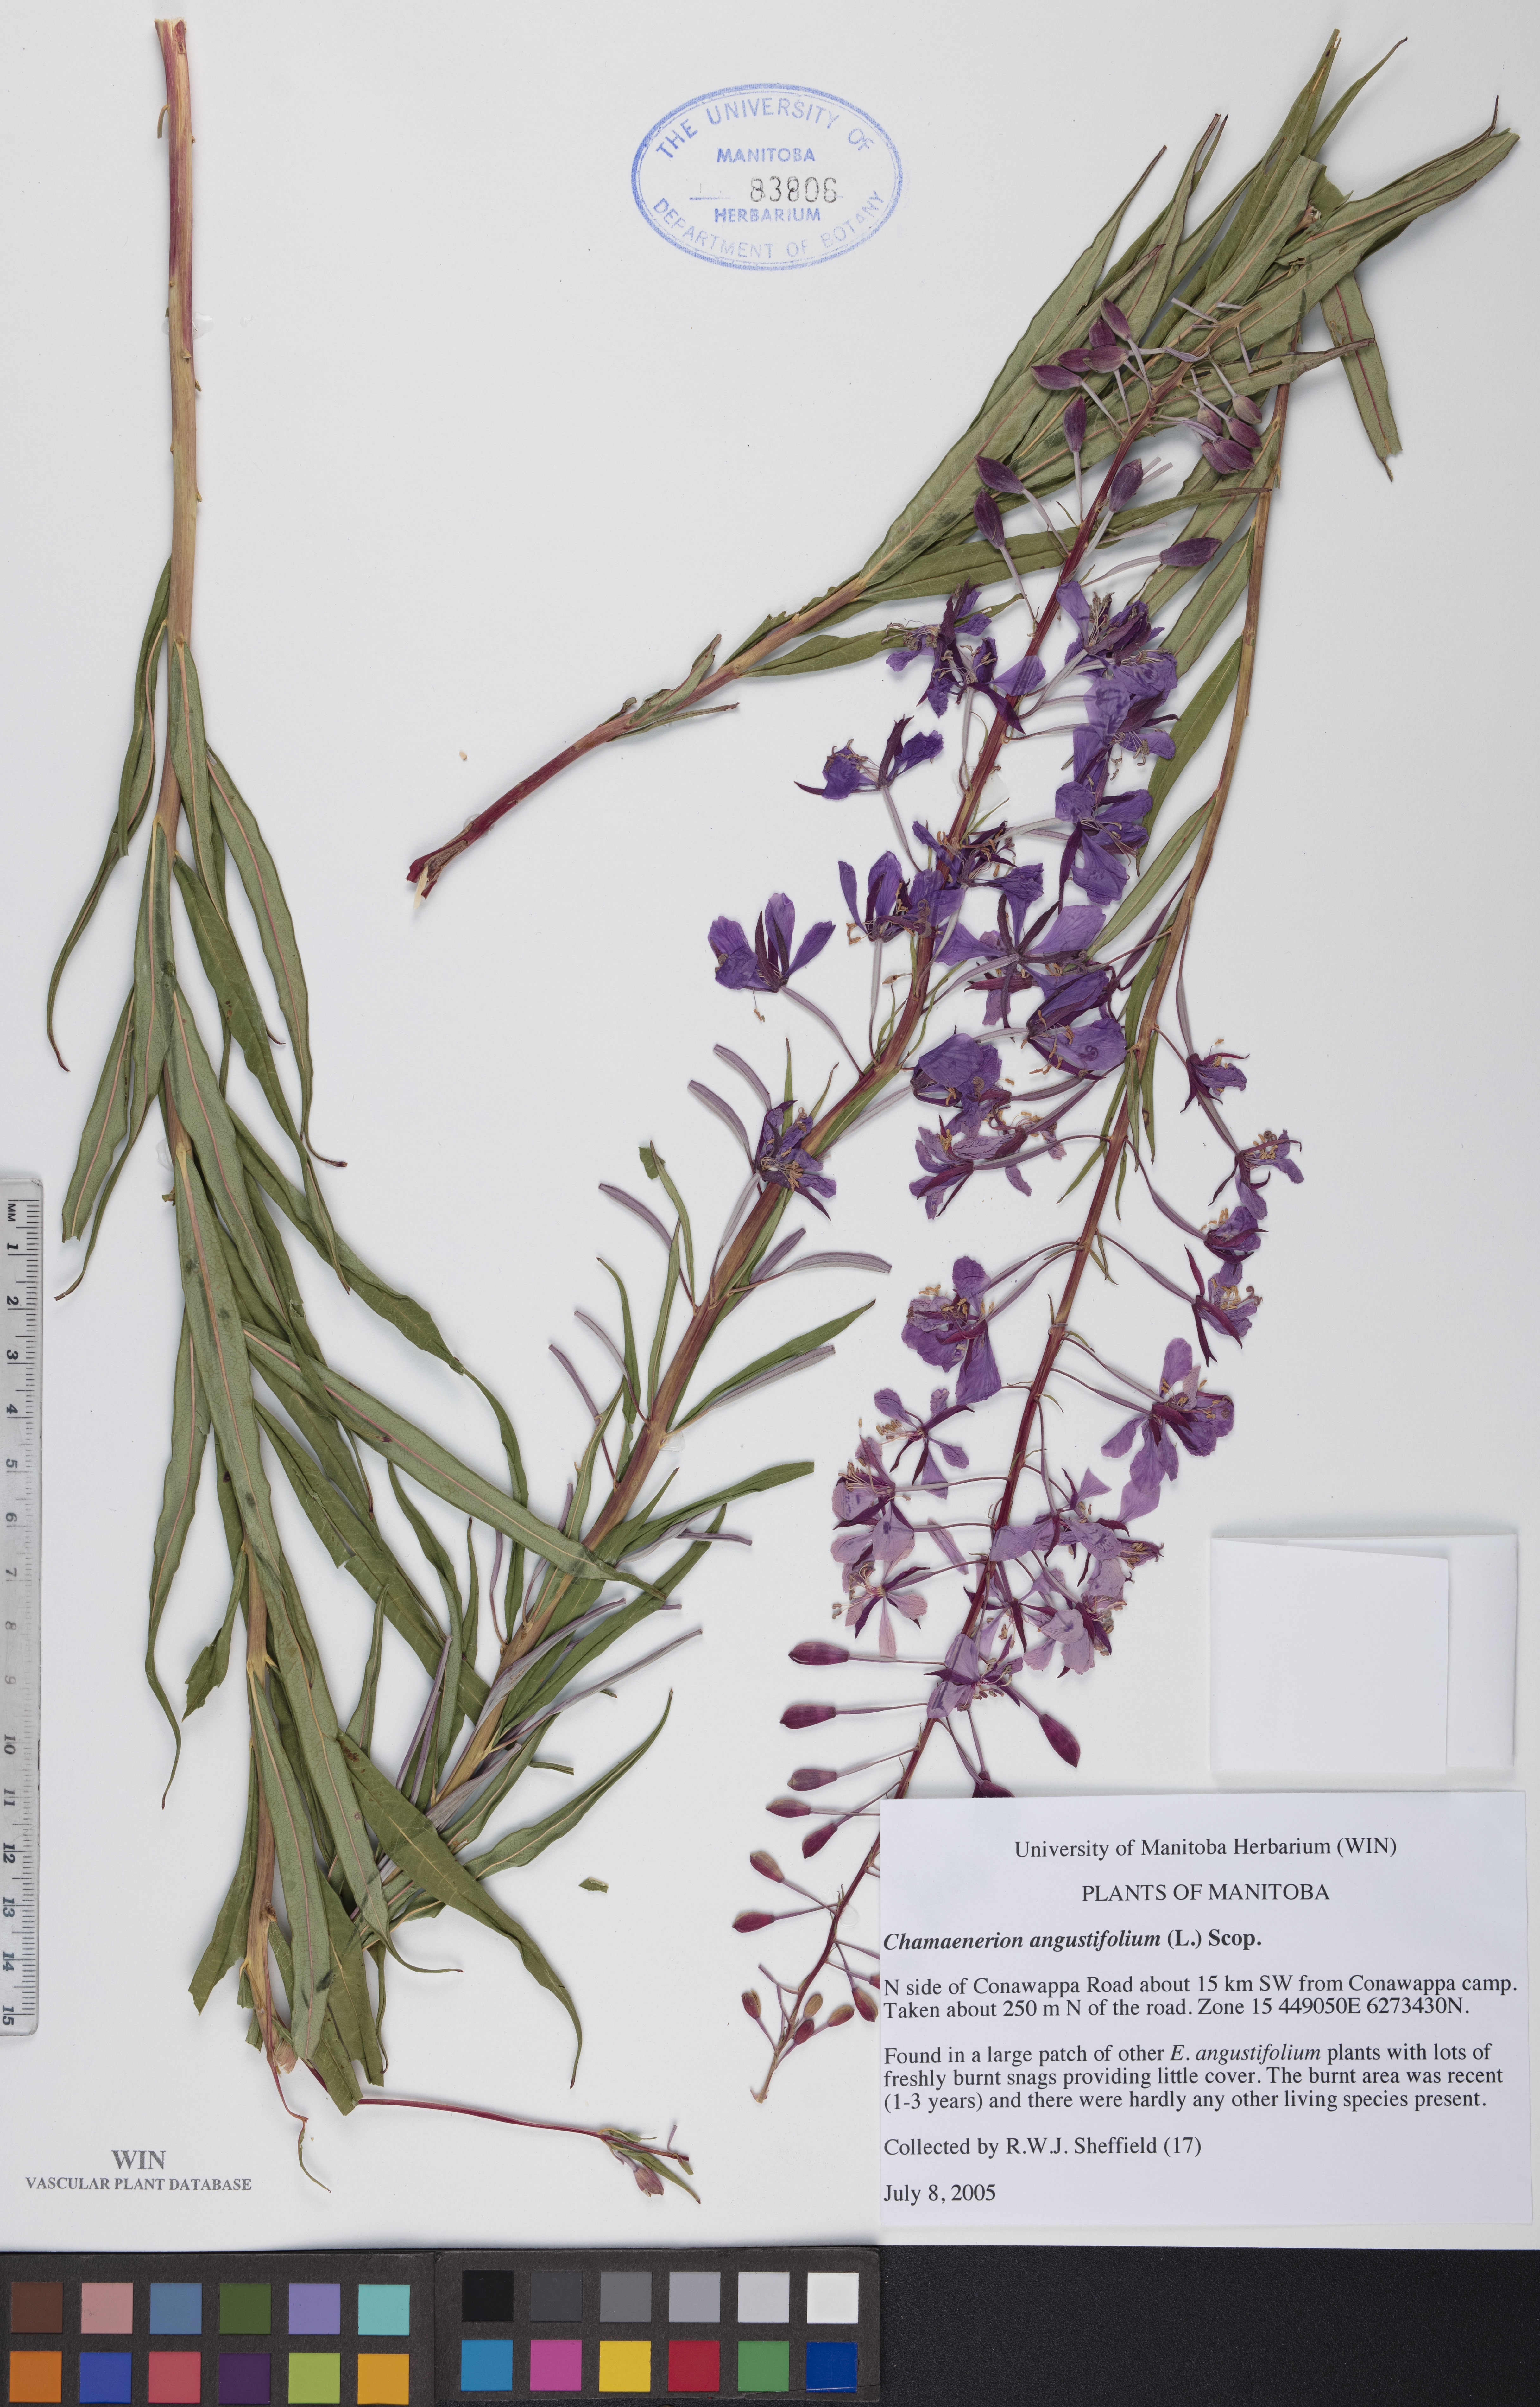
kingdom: Plantae
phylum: Tracheophyta
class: Magnoliopsida
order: Myrtales
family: Onagraceae
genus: Chamaenerion
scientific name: Chamaenerion angustifolium
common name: Fireweed
